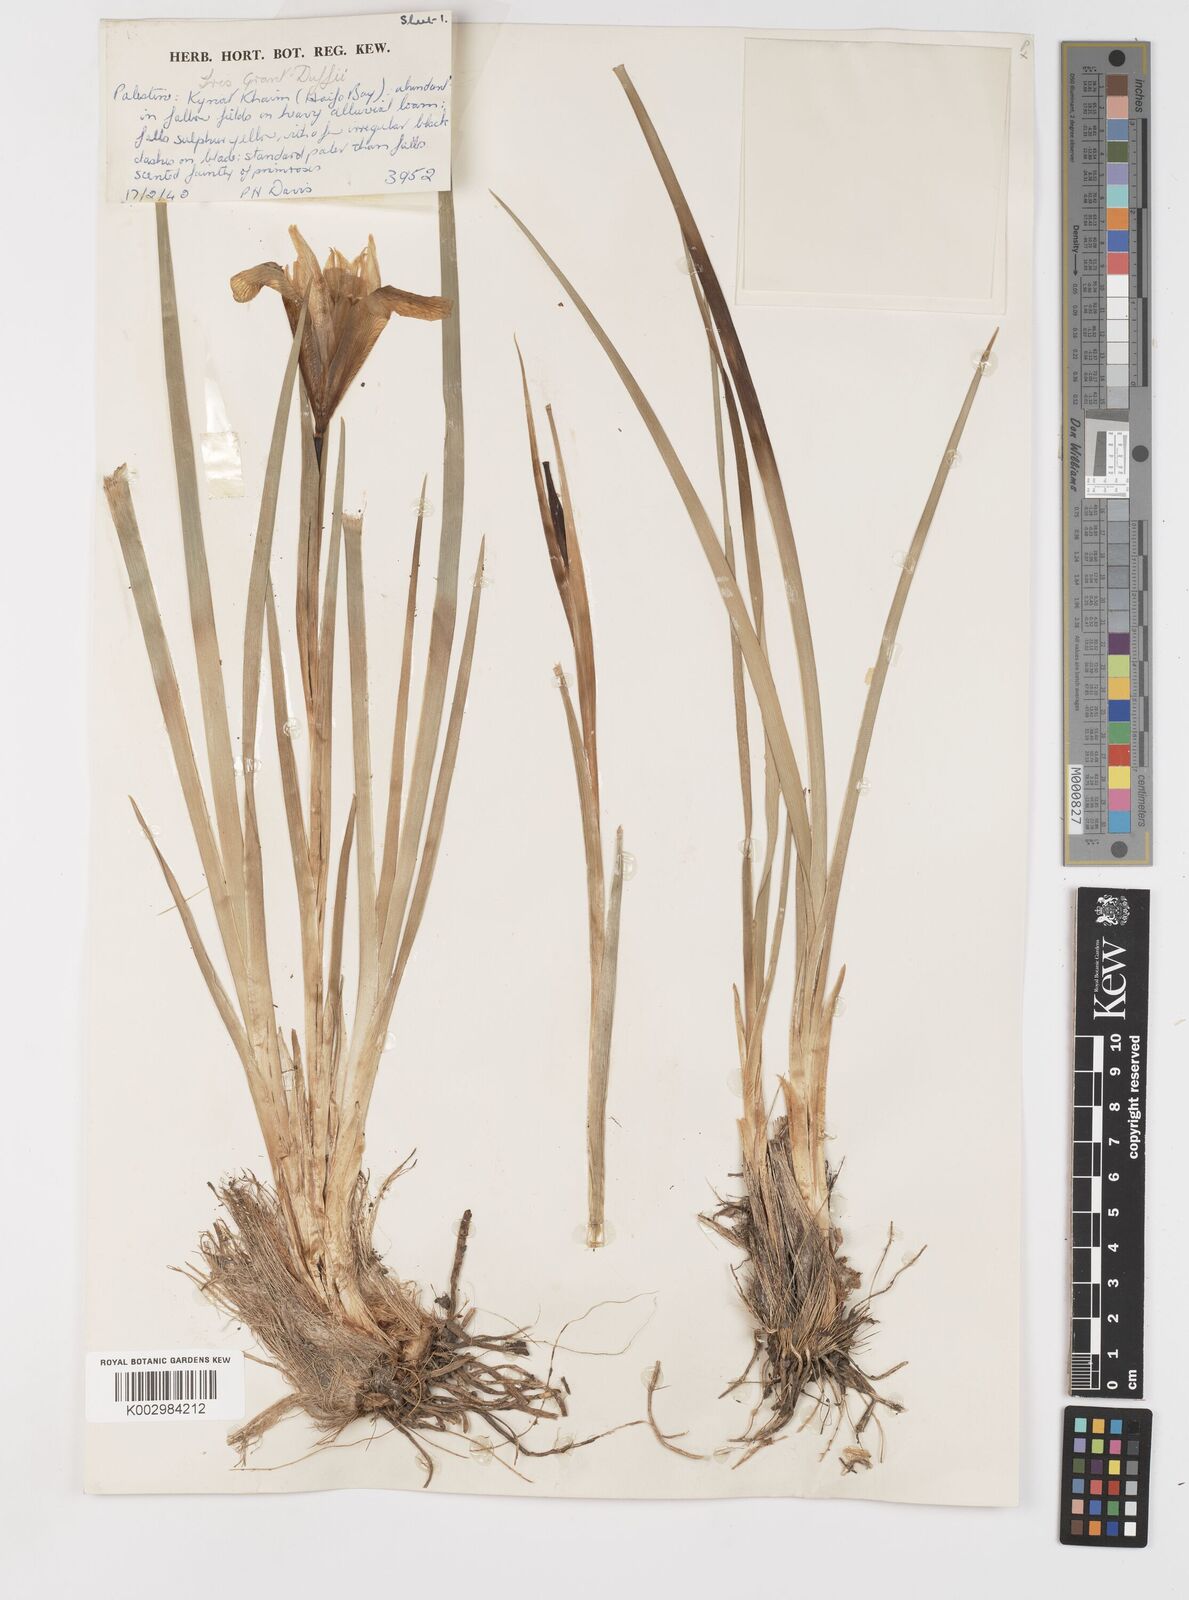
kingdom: Plantae
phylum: Tracheophyta
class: Liliopsida
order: Asparagales
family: Iridaceae
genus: Iris
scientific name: Iris grant-duffii
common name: Grant duff's iris
